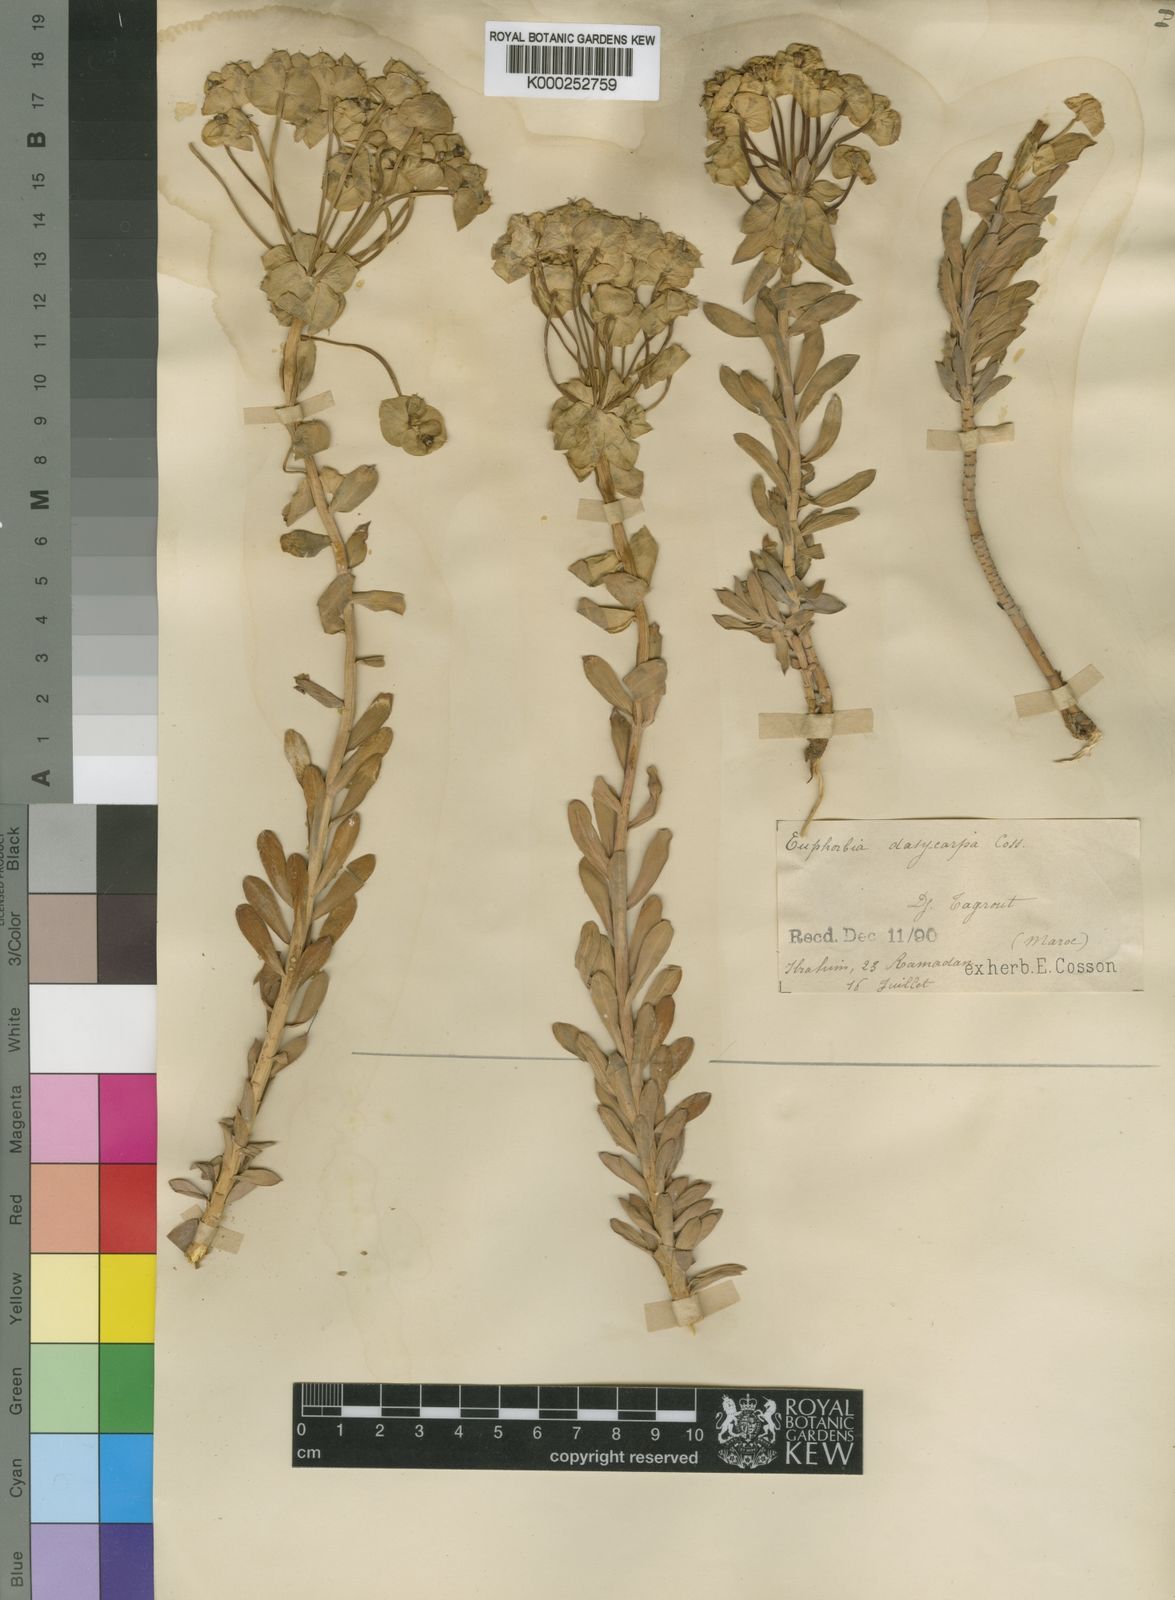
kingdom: Plantae
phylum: Tracheophyta
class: Magnoliopsida
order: Malpighiales
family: Euphorbiaceae
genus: Euphorbia
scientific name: Euphorbia nicaeensis
